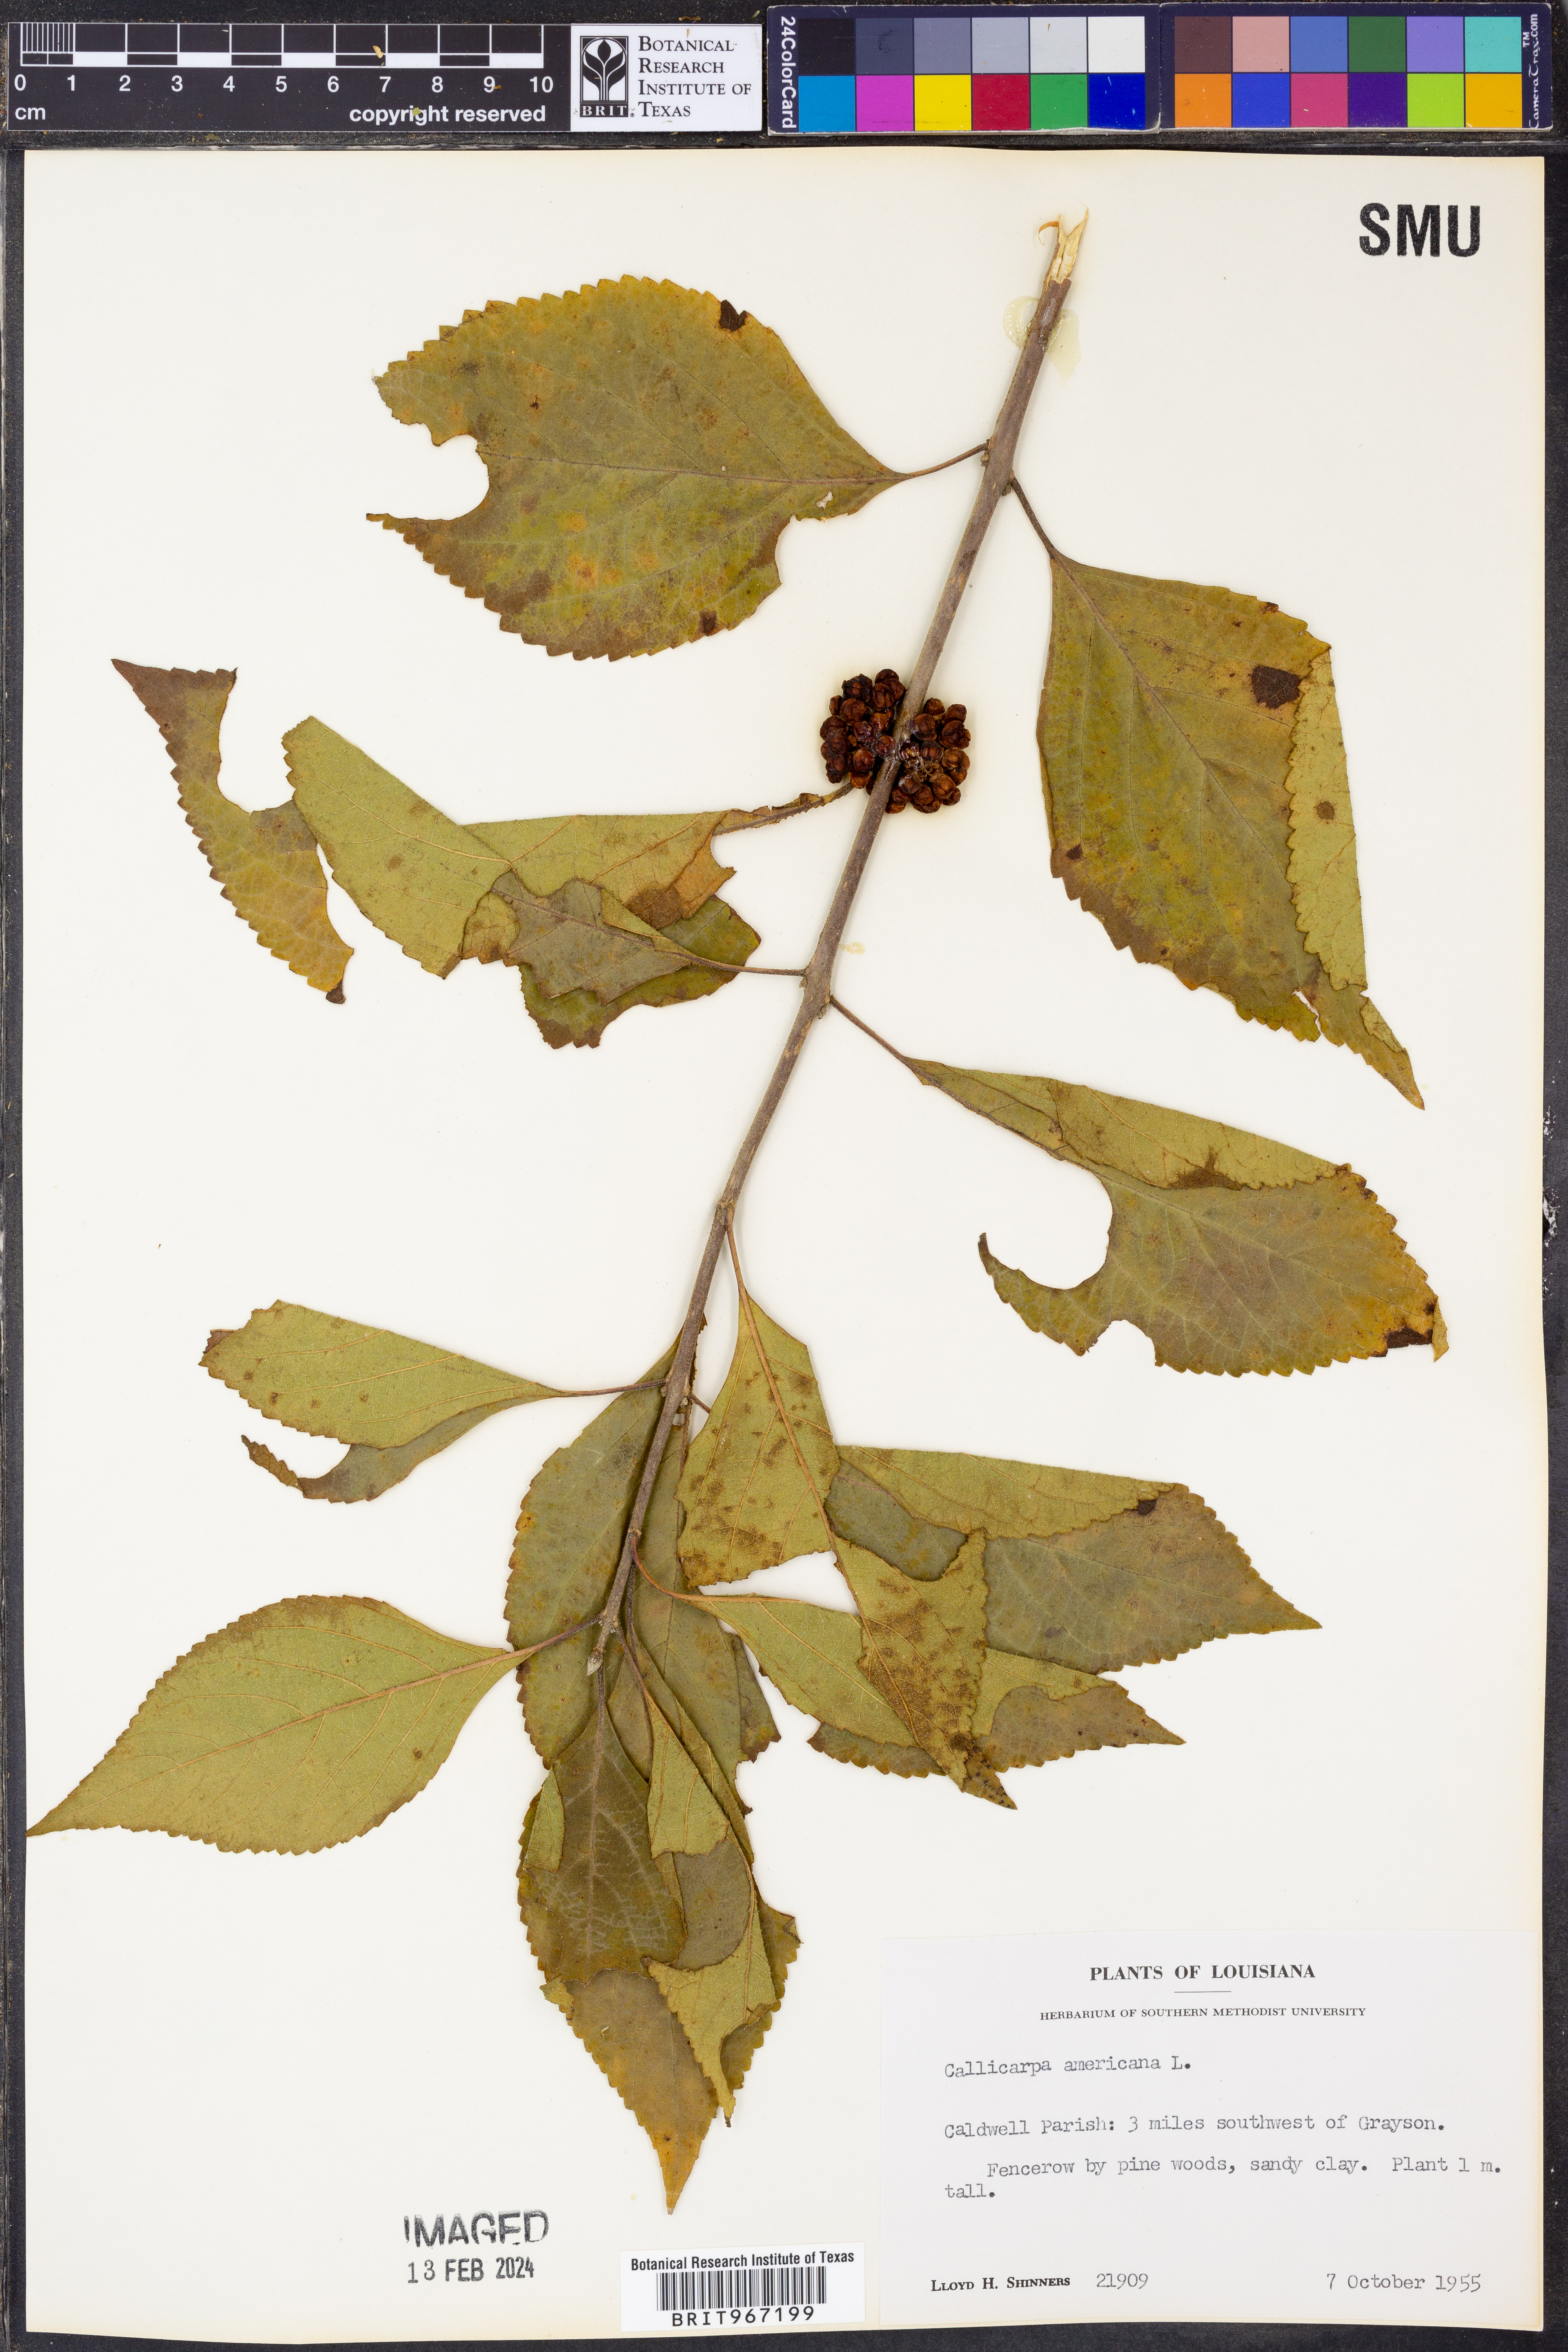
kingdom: Plantae
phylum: Tracheophyta
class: Magnoliopsida
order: Lamiales
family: Lamiaceae
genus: Callicarpa
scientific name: Callicarpa americana
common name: American beautyberry
